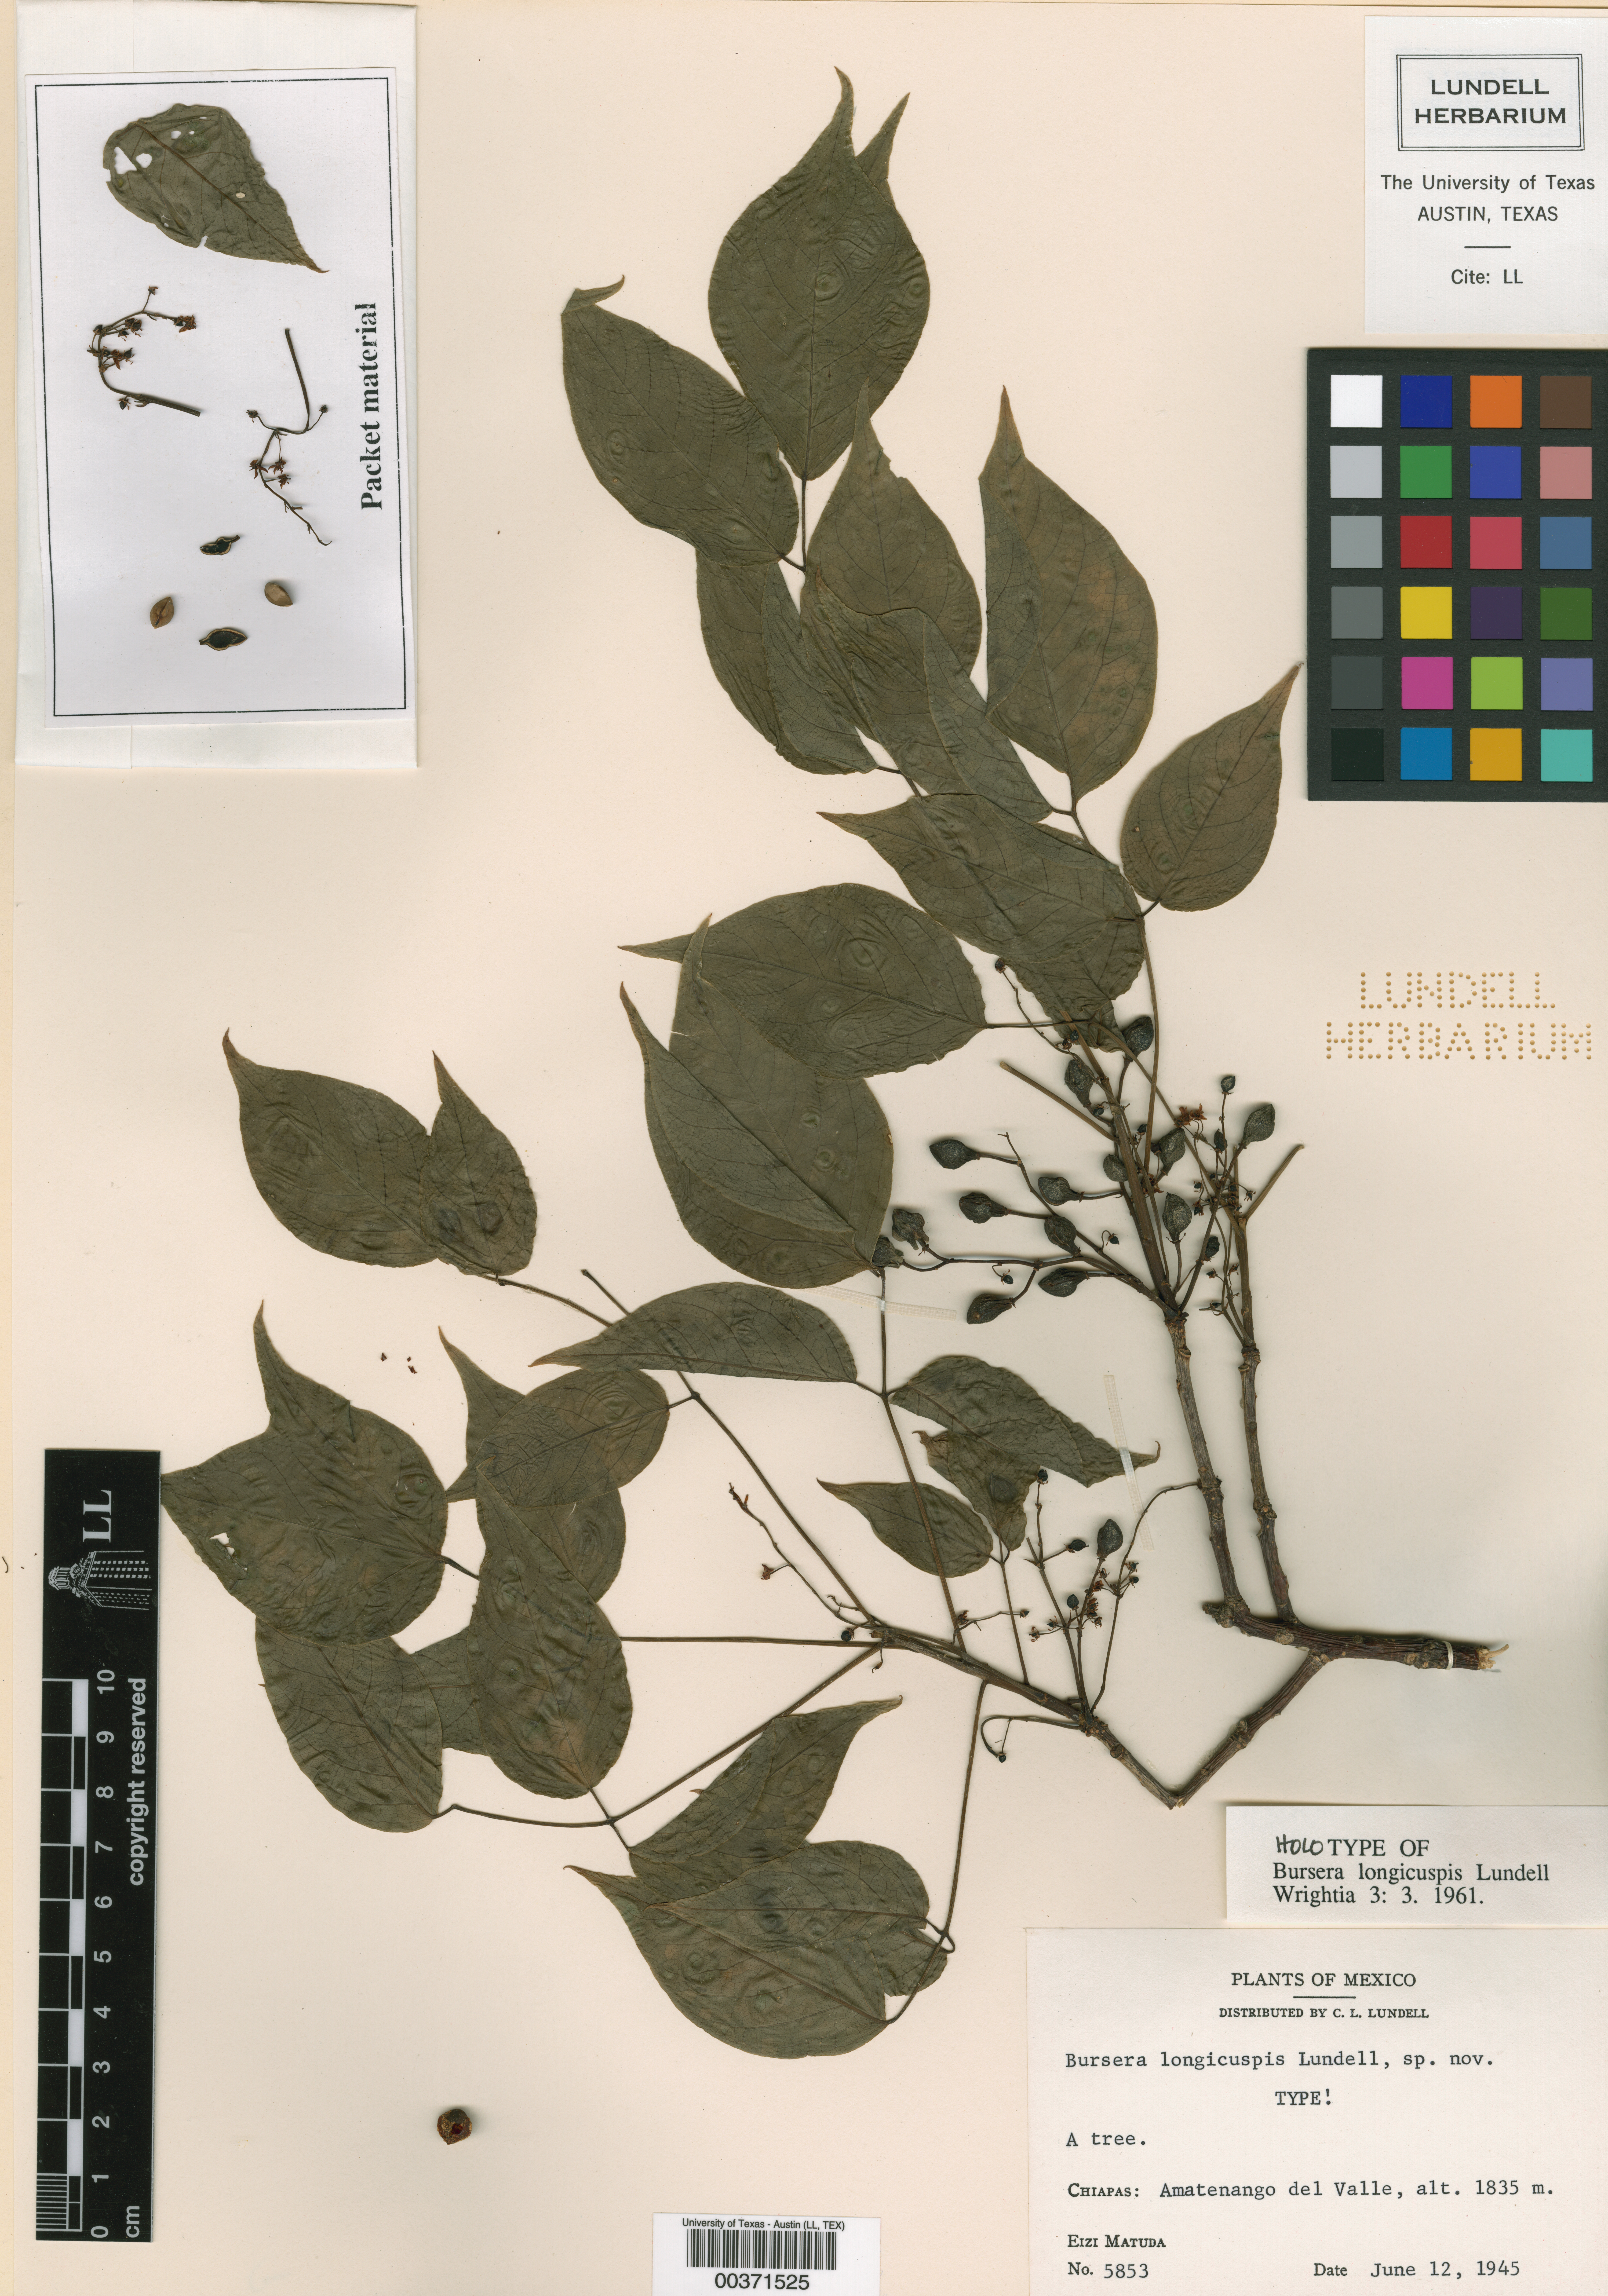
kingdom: Plantae
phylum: Tracheophyta
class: Magnoliopsida
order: Sapindales
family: Burseraceae
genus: Bursera
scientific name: Bursera ovalifolia
